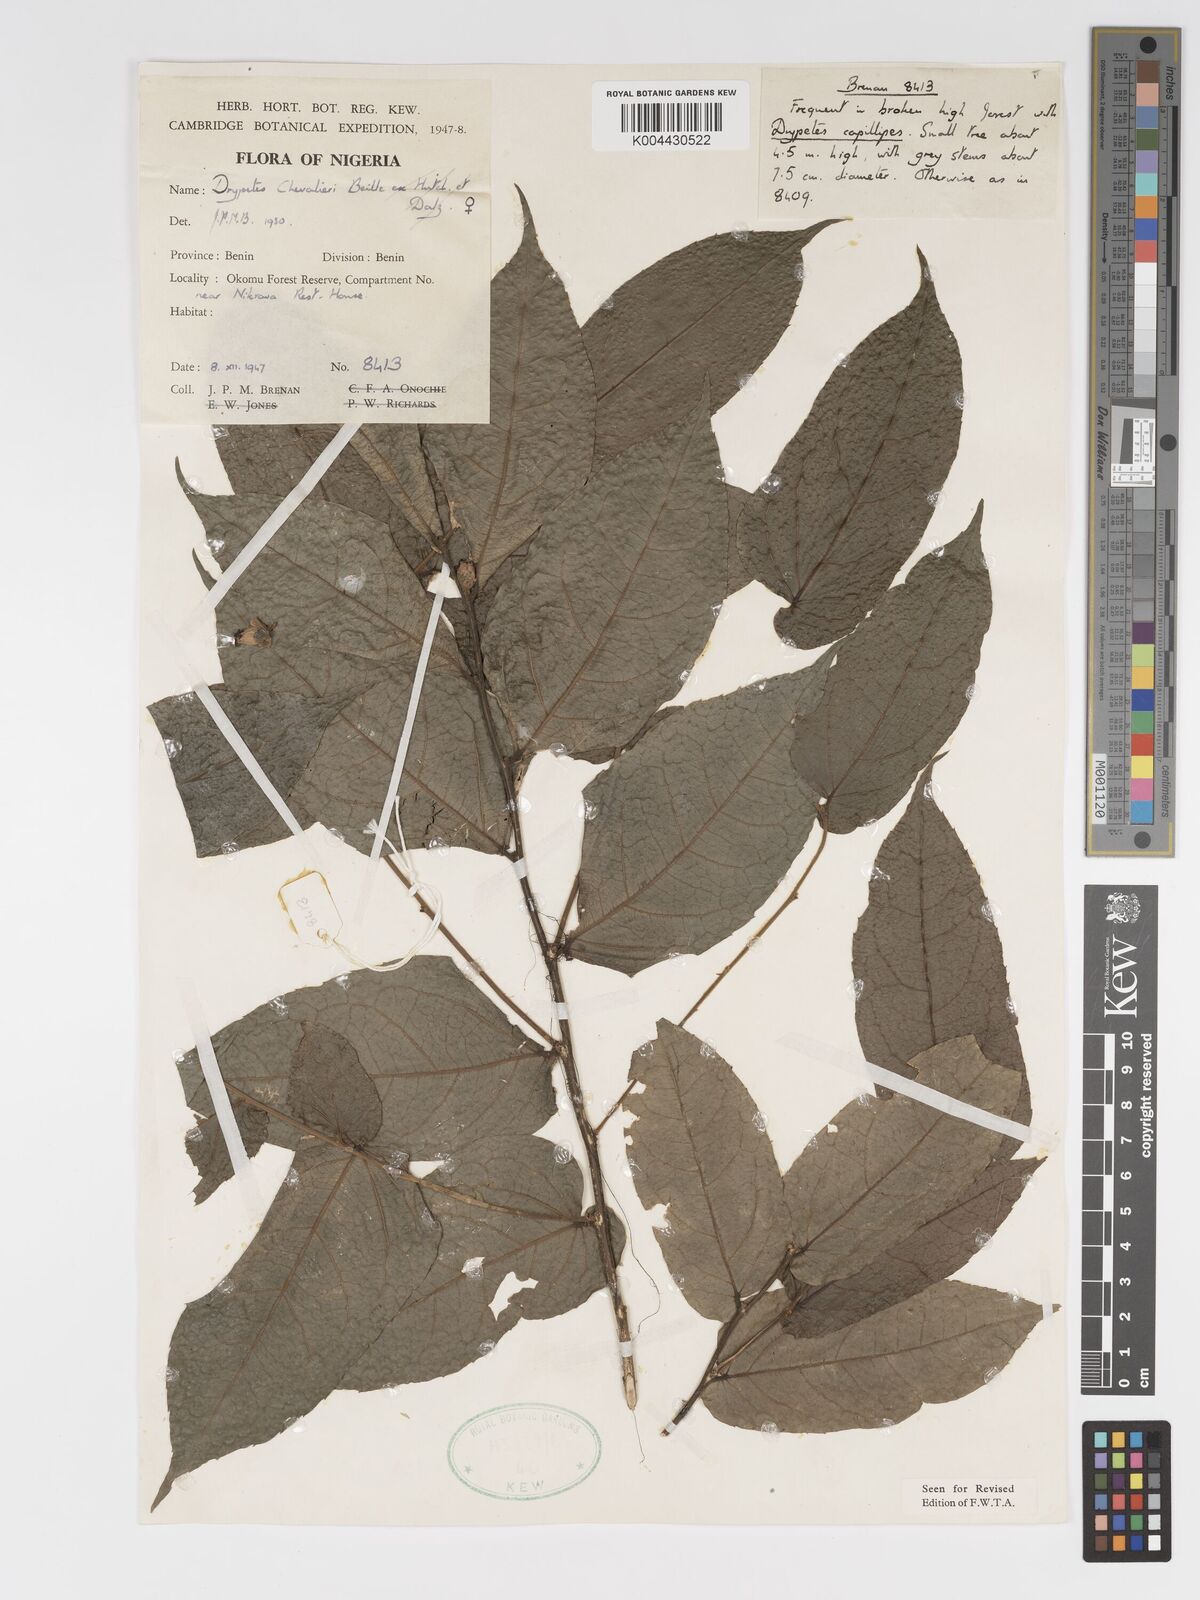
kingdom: Plantae
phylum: Tracheophyta
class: Magnoliopsida
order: Malpighiales
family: Putranjivaceae
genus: Drypetes
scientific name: Drypetes chevalieri
